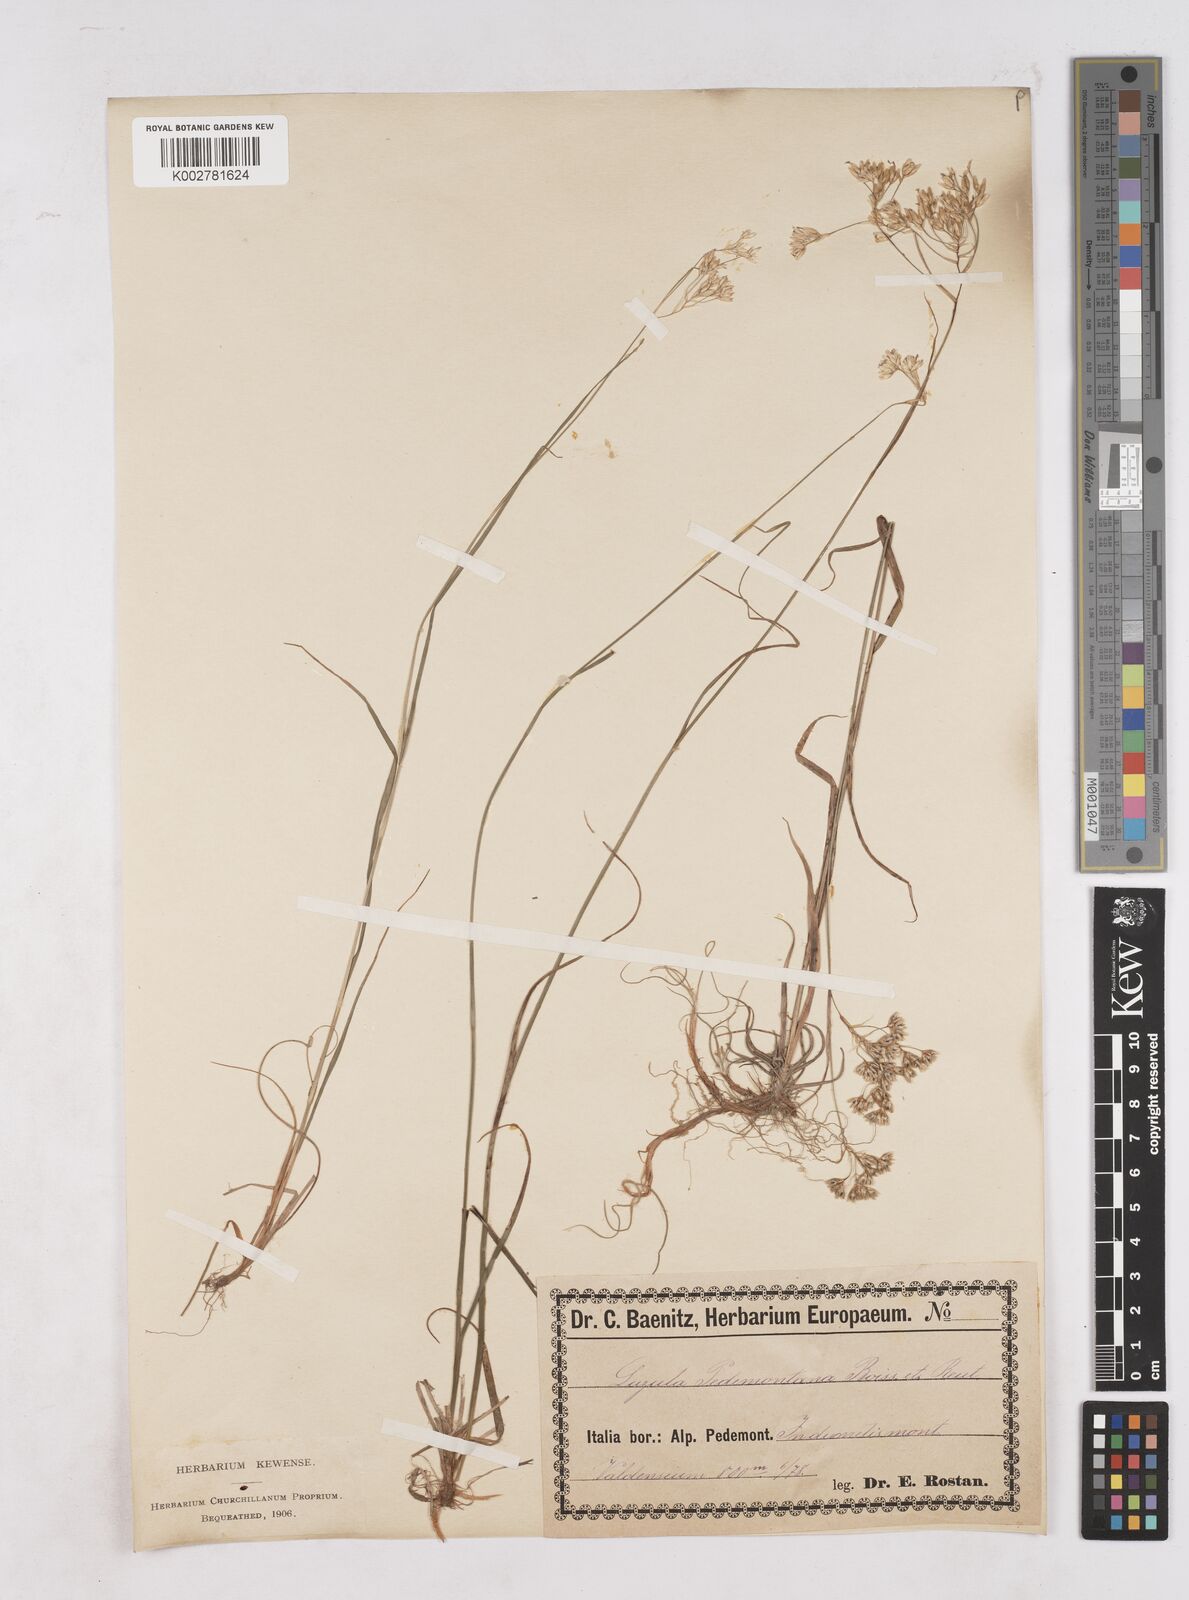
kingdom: Plantae
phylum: Tracheophyta
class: Liliopsida
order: Poales
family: Juncaceae
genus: Luzula
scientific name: Luzula pedemontana
